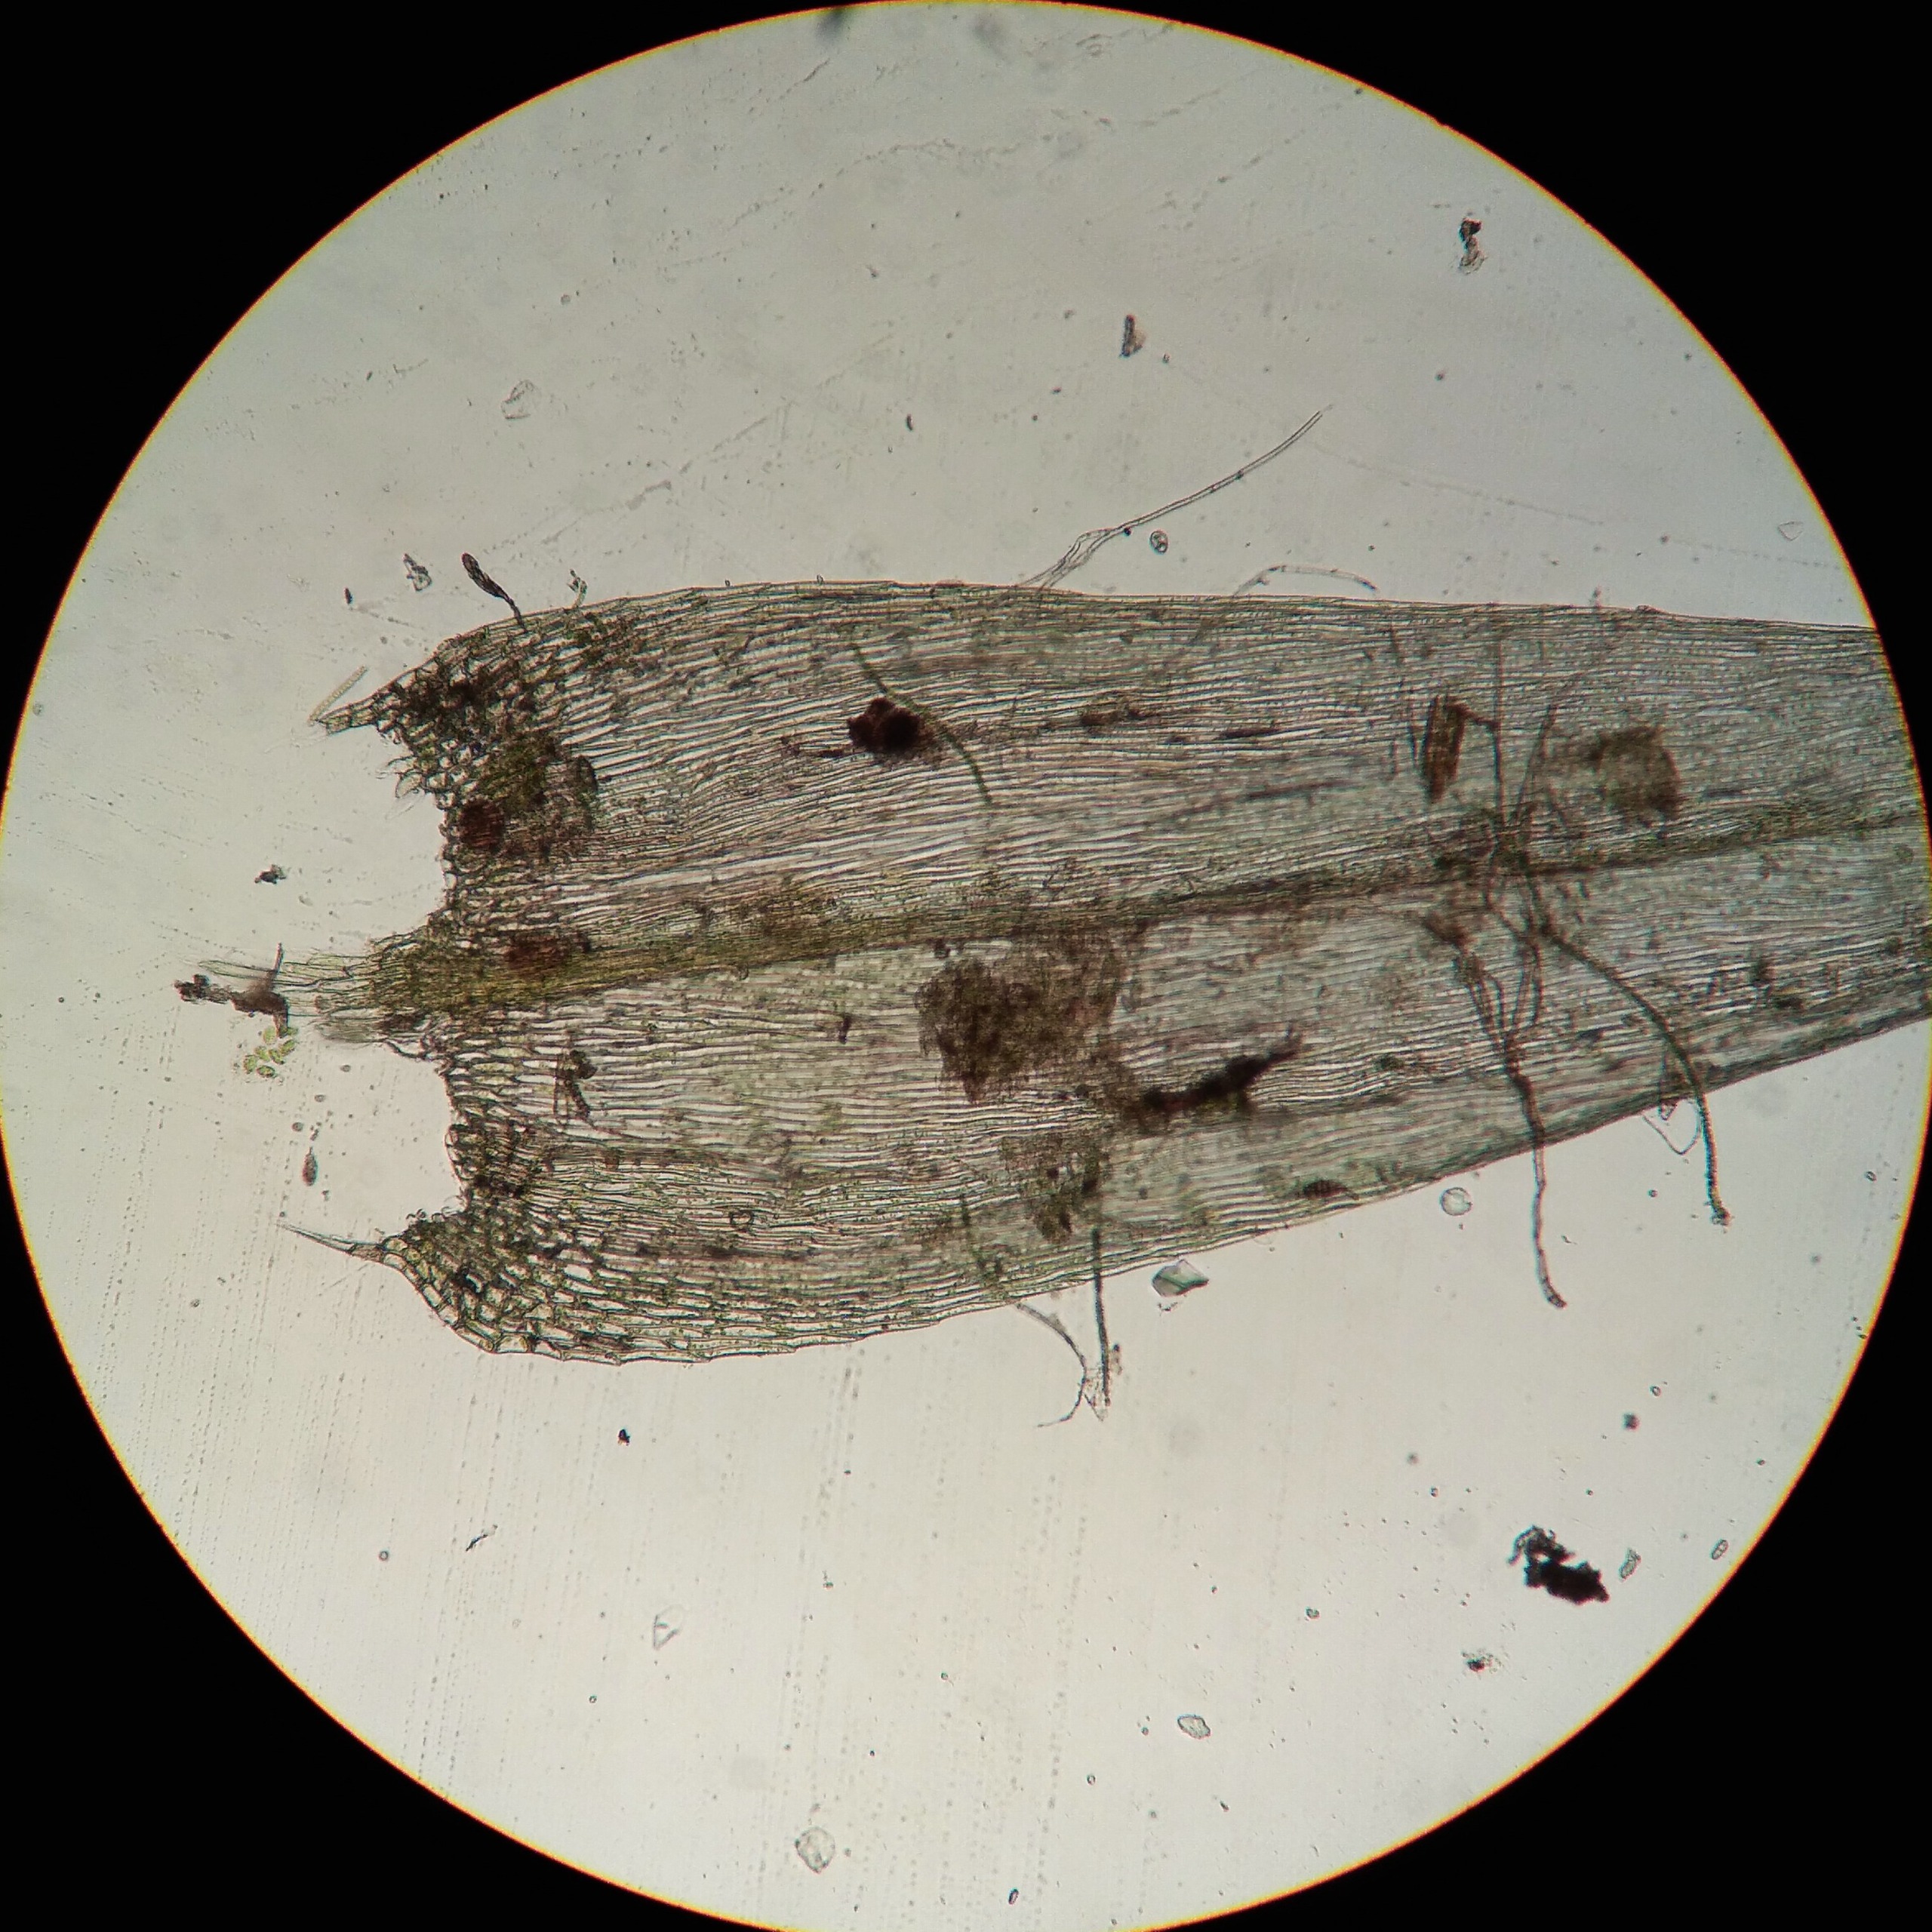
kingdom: Plantae
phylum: Bryophyta
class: Bryopsida
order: Hypnales
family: Brachytheciaceae
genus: Brachythecium
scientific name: Brachythecium salebrosum
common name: Skov-kortkapsel
